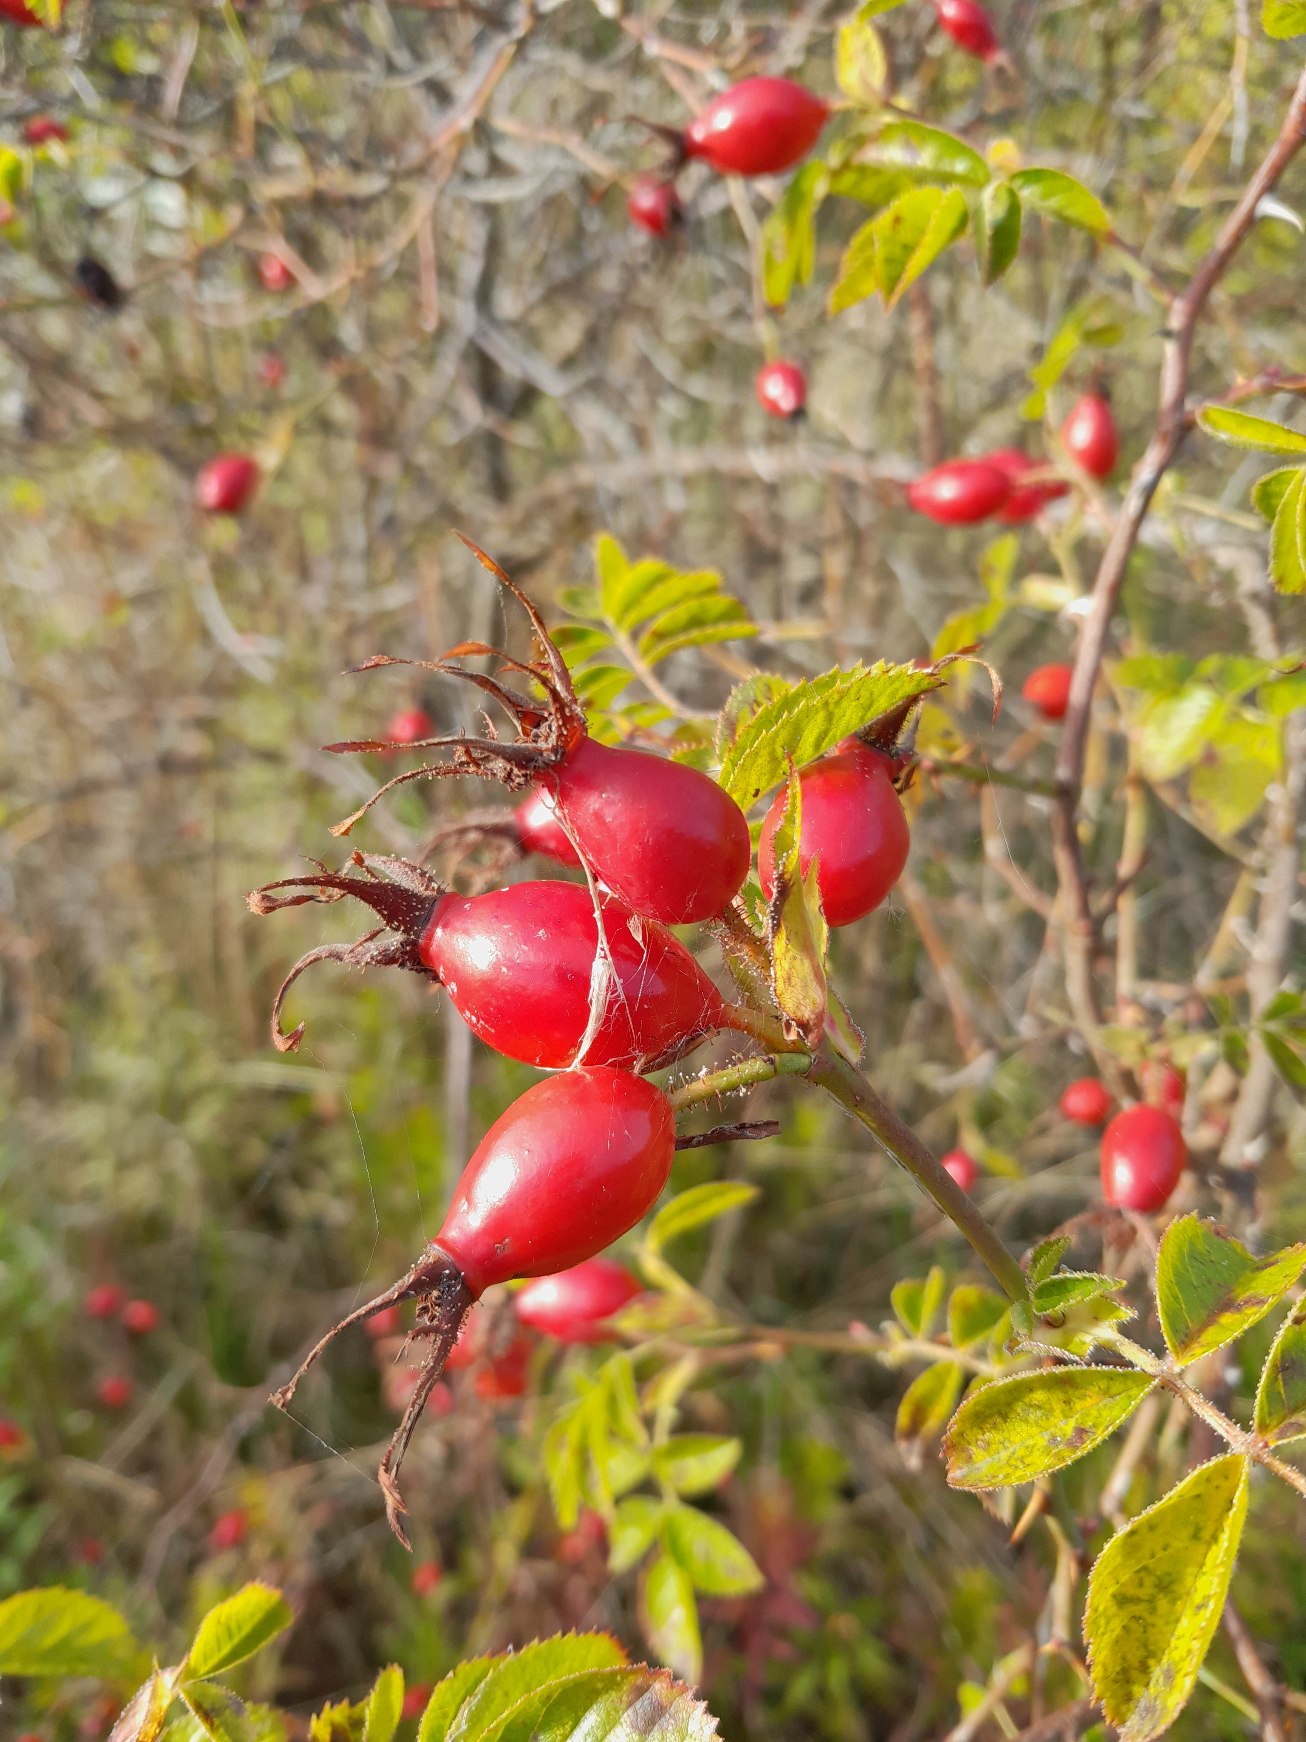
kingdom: Plantae
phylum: Tracheophyta
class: Magnoliopsida
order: Rosales
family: Rosaceae
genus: Rosa
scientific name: Rosa rubiginosa
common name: Æble-rose
